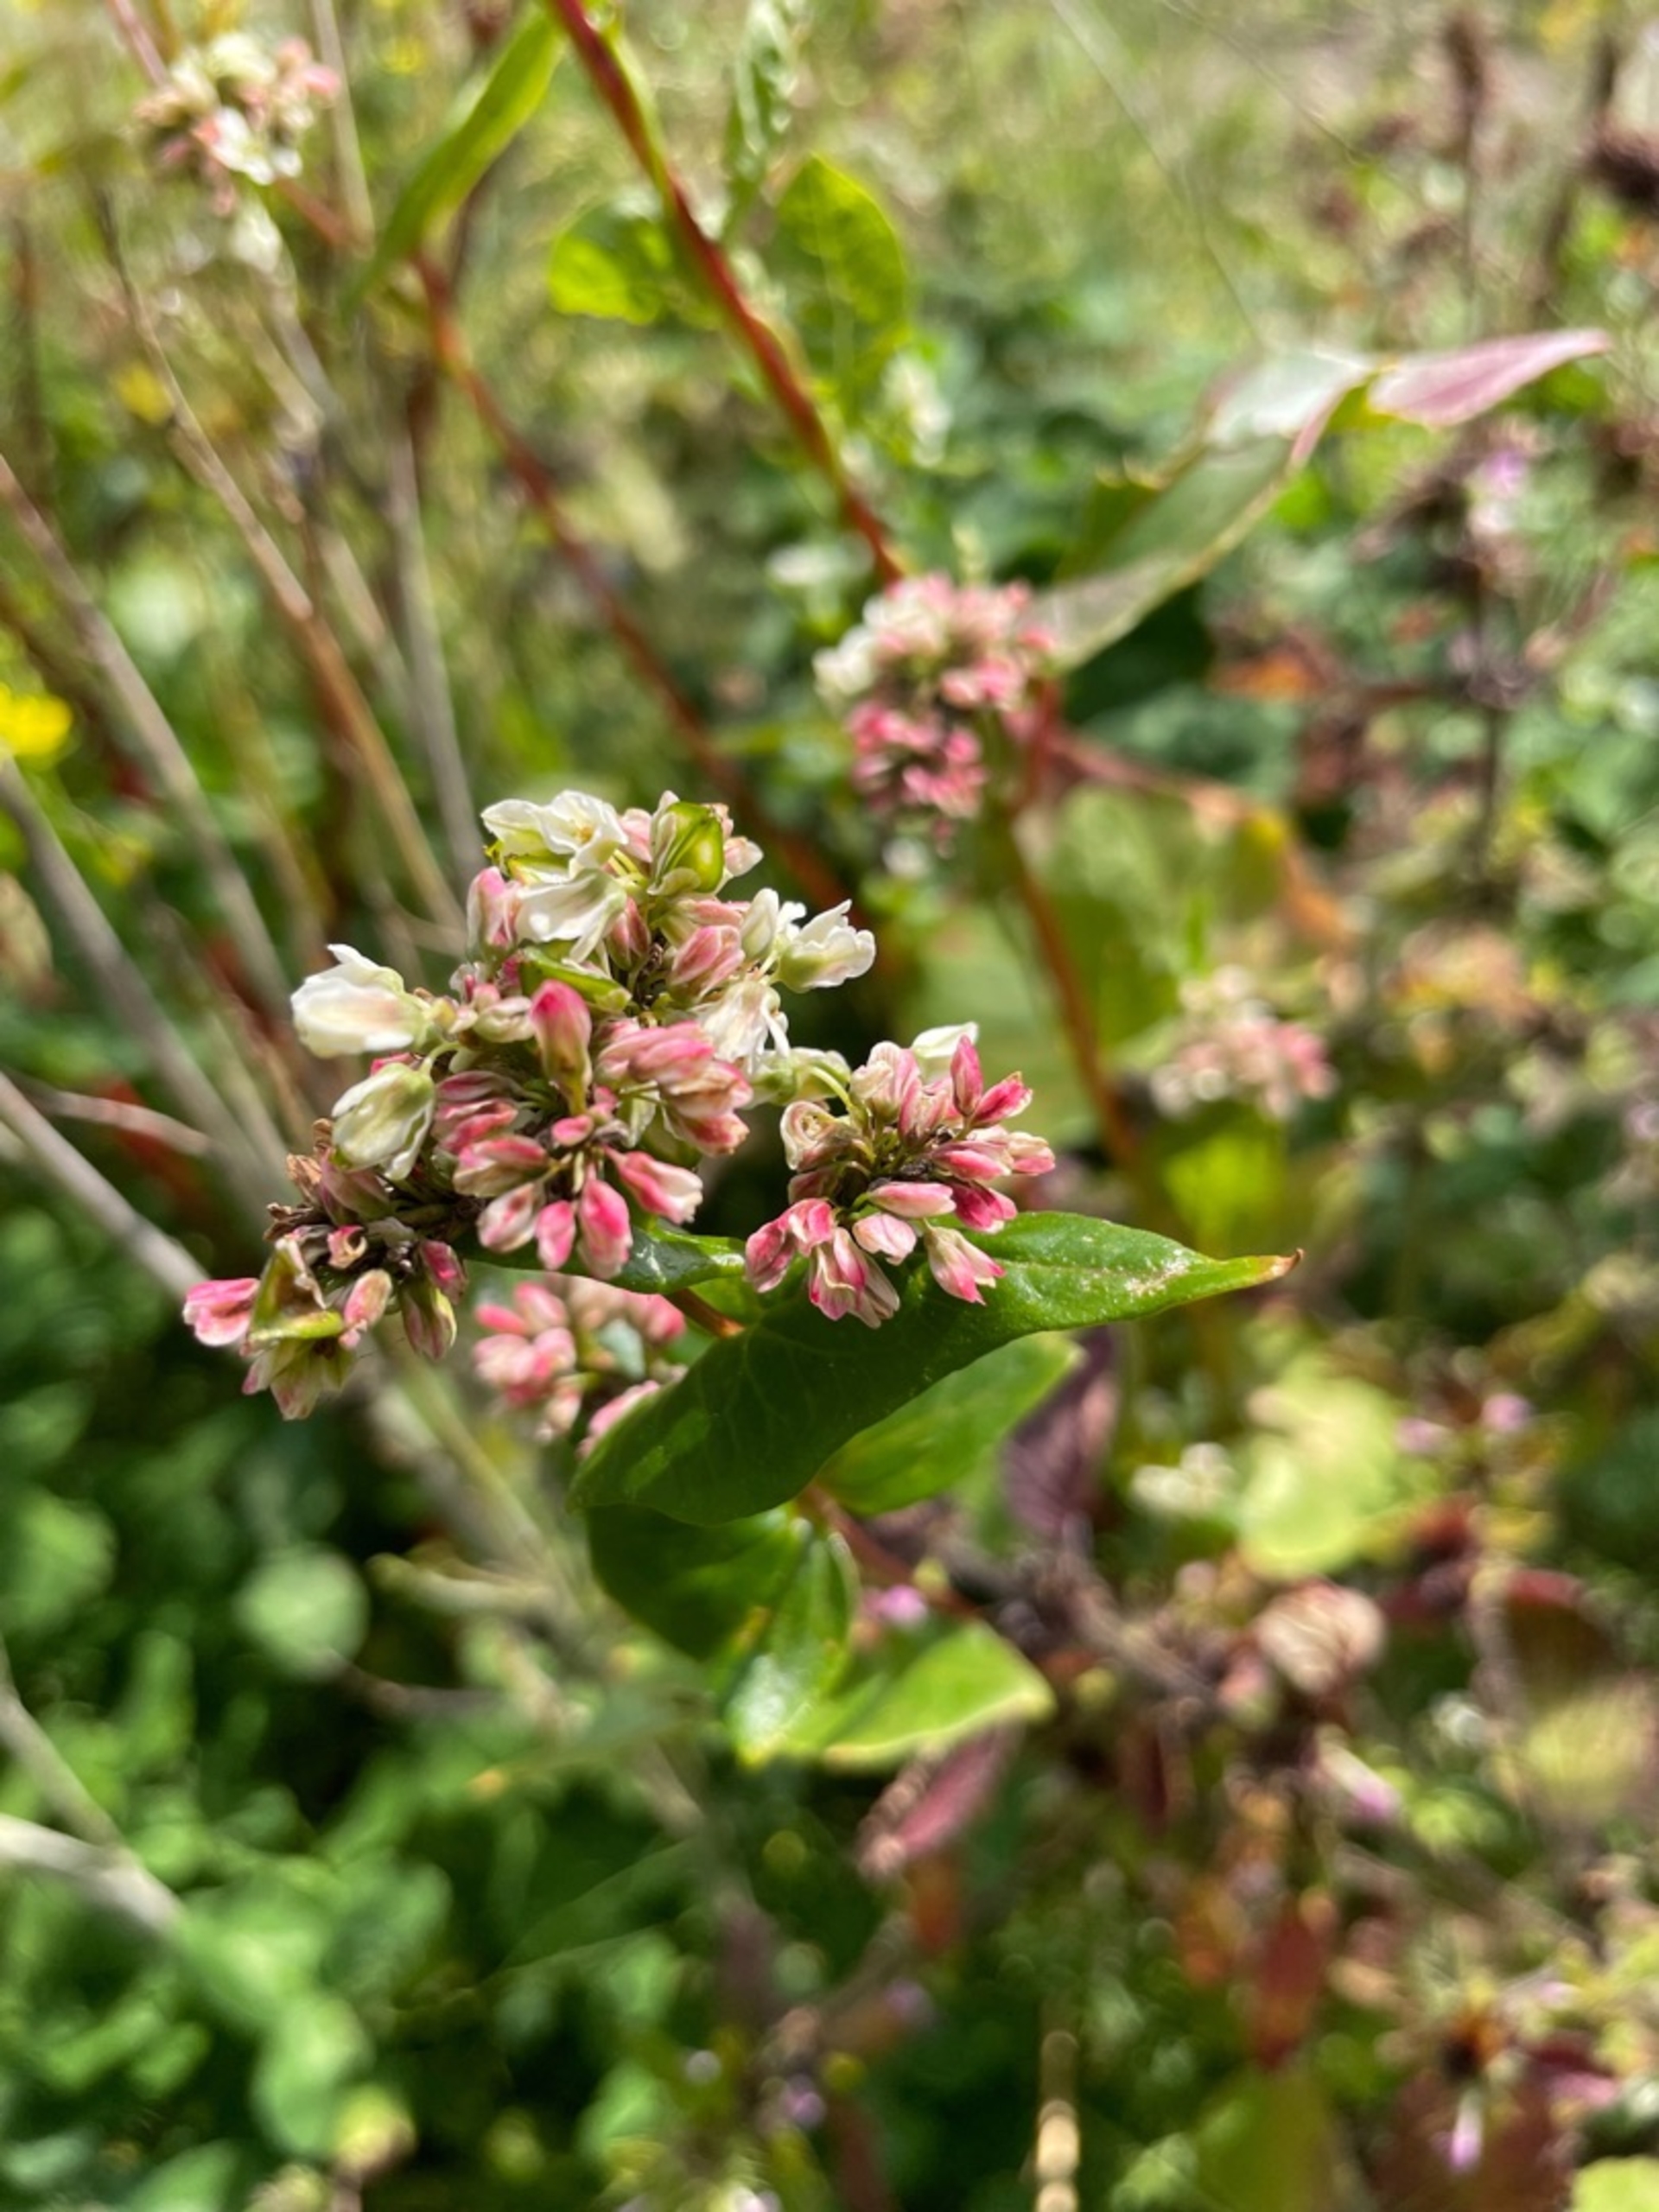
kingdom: Plantae
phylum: Tracheophyta
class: Magnoliopsida
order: Caryophyllales
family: Polygonaceae
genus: Fagopyrum
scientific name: Fagopyrum esculentum
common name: Almindelig boghvede
